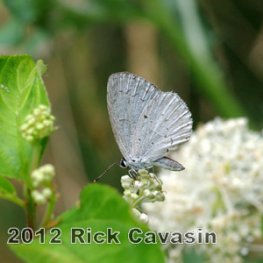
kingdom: Animalia
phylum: Arthropoda
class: Insecta
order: Lepidoptera
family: Lycaenidae
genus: Cyaniris
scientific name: Cyaniris neglecta
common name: Summer Azure
